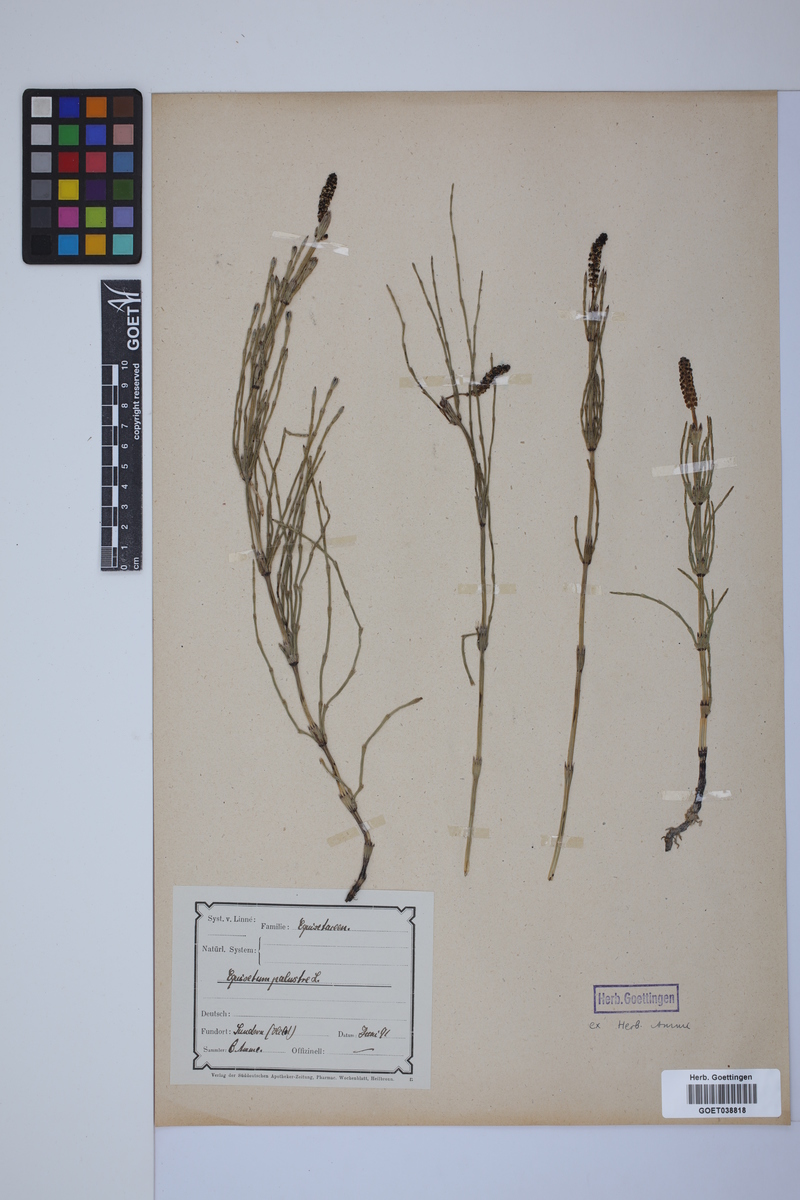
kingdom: Plantae
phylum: Tracheophyta
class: Polypodiopsida
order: Equisetales
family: Equisetaceae
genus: Equisetum
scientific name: Equisetum palustre
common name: Marsh horsetail
